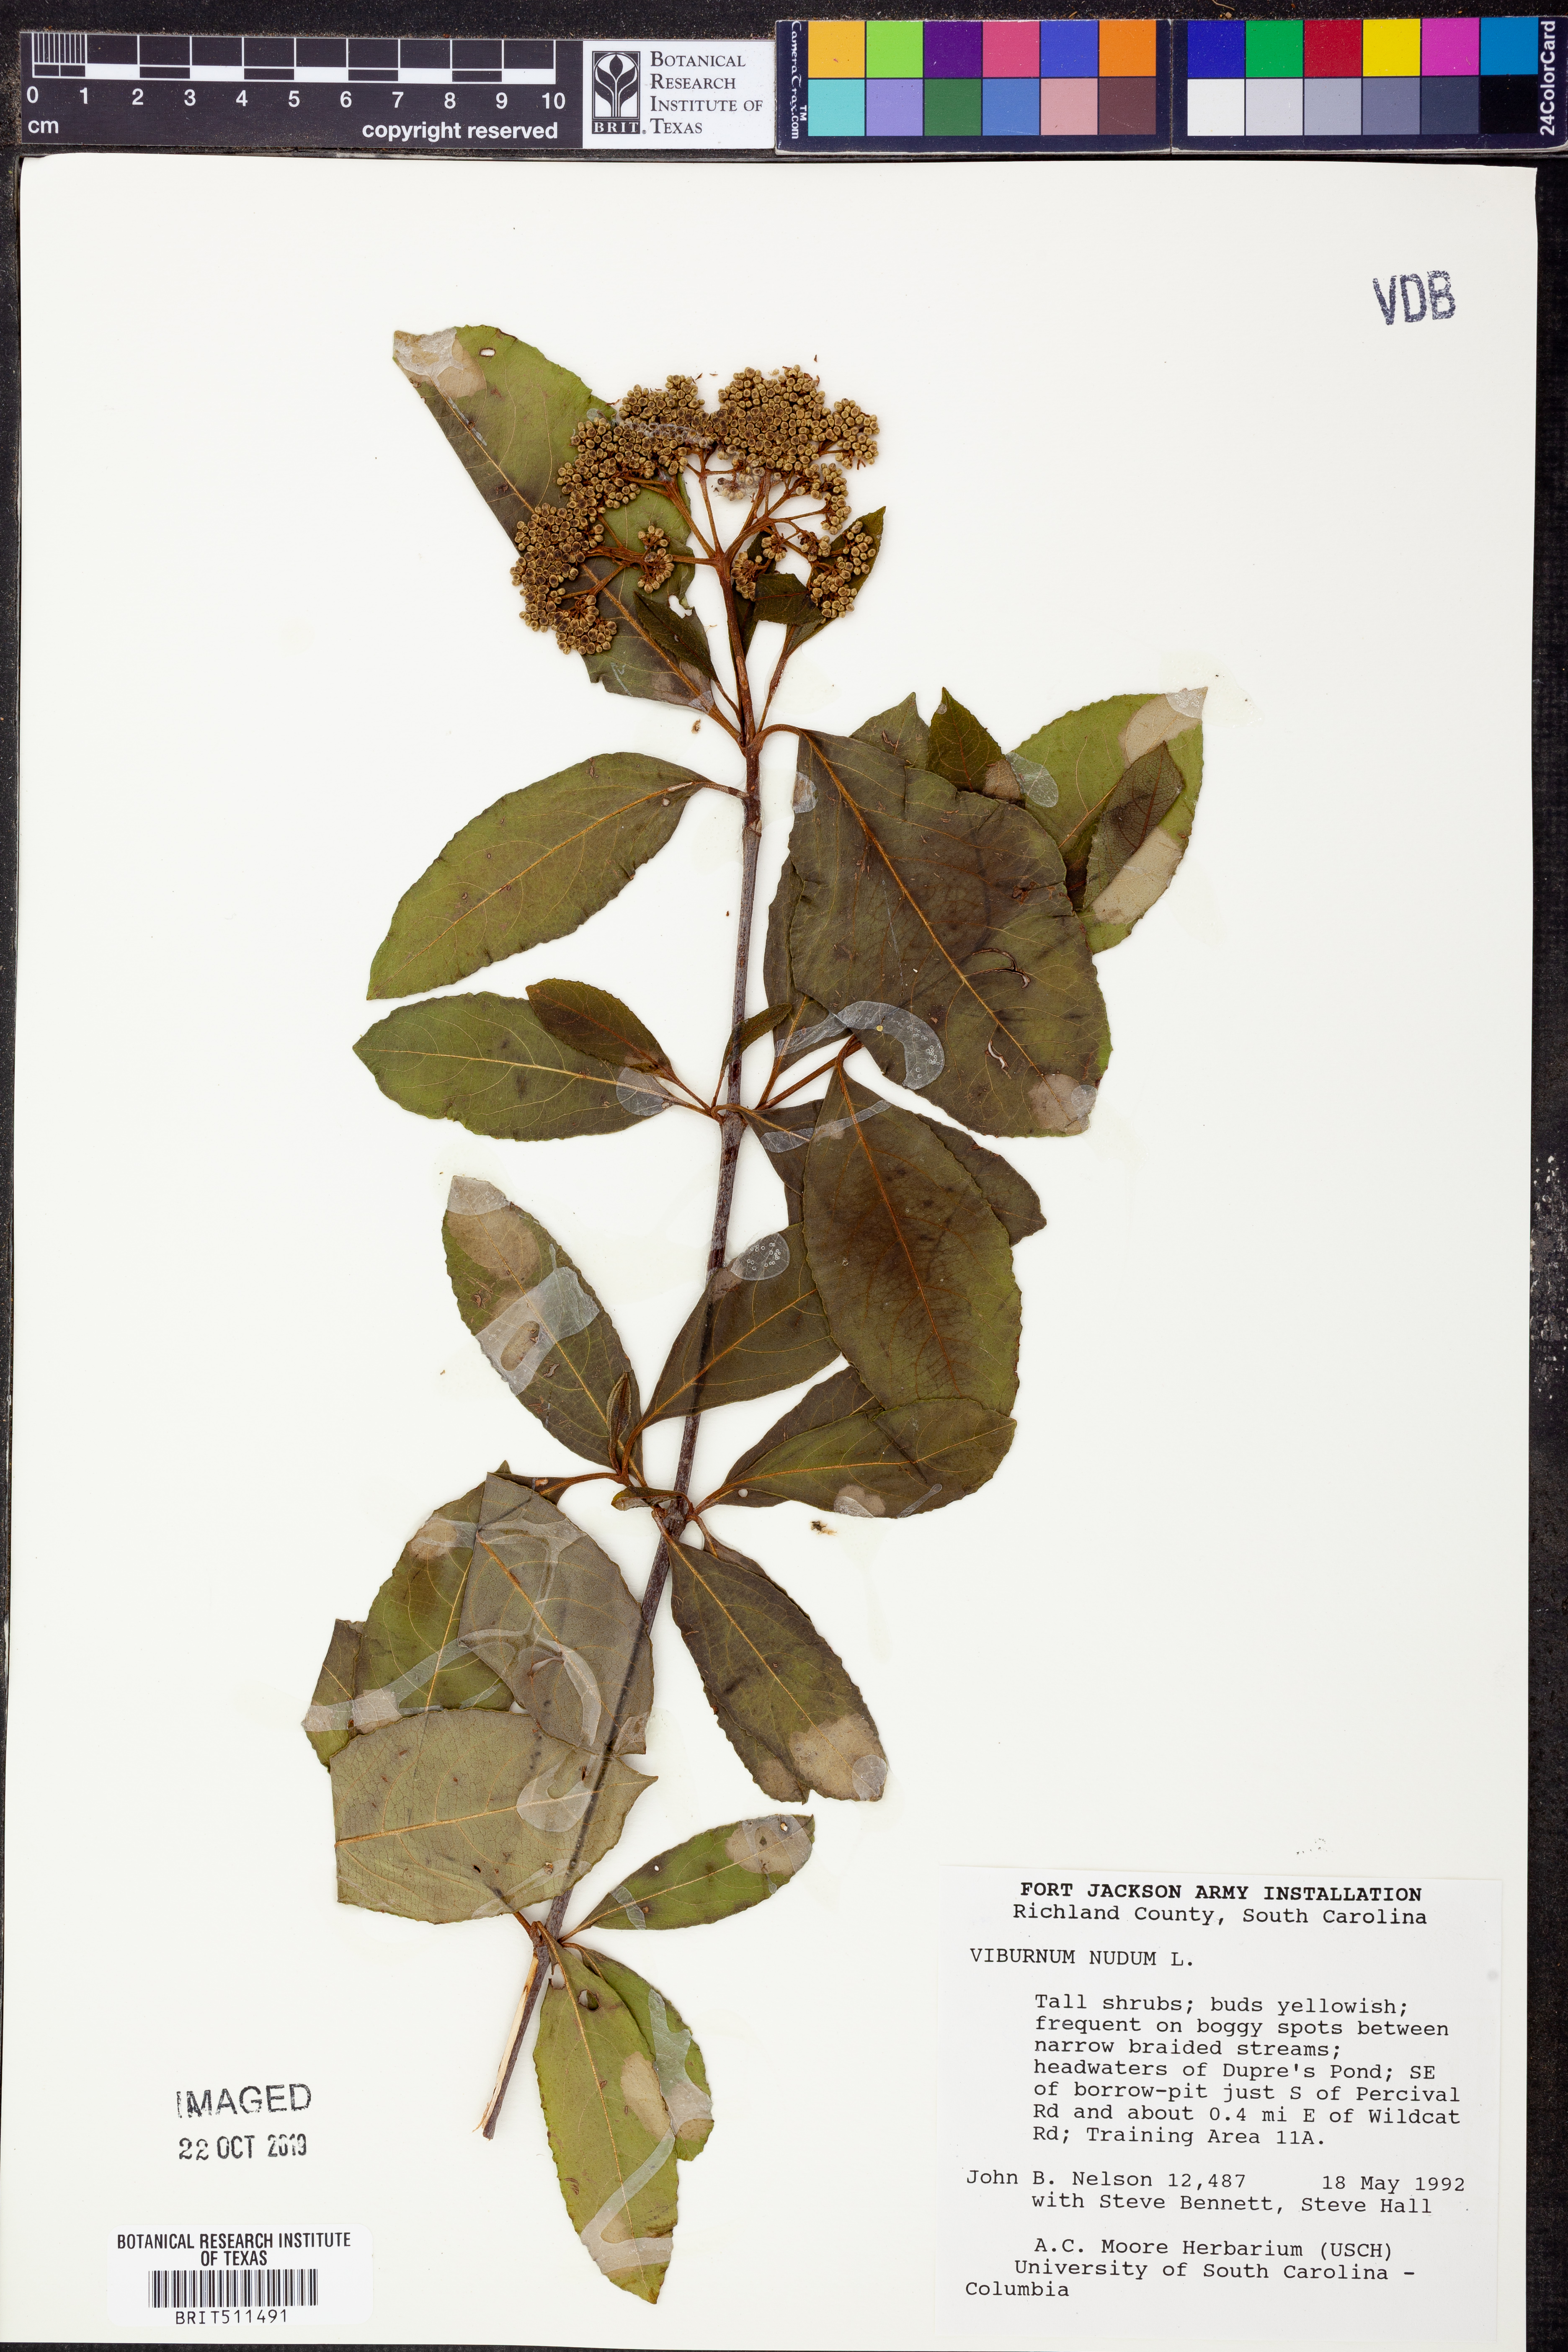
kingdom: Plantae
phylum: Tracheophyta
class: Magnoliopsida
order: Dipsacales
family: Viburnaceae
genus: Viburnum
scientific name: Viburnum nudum
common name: Possum haw
